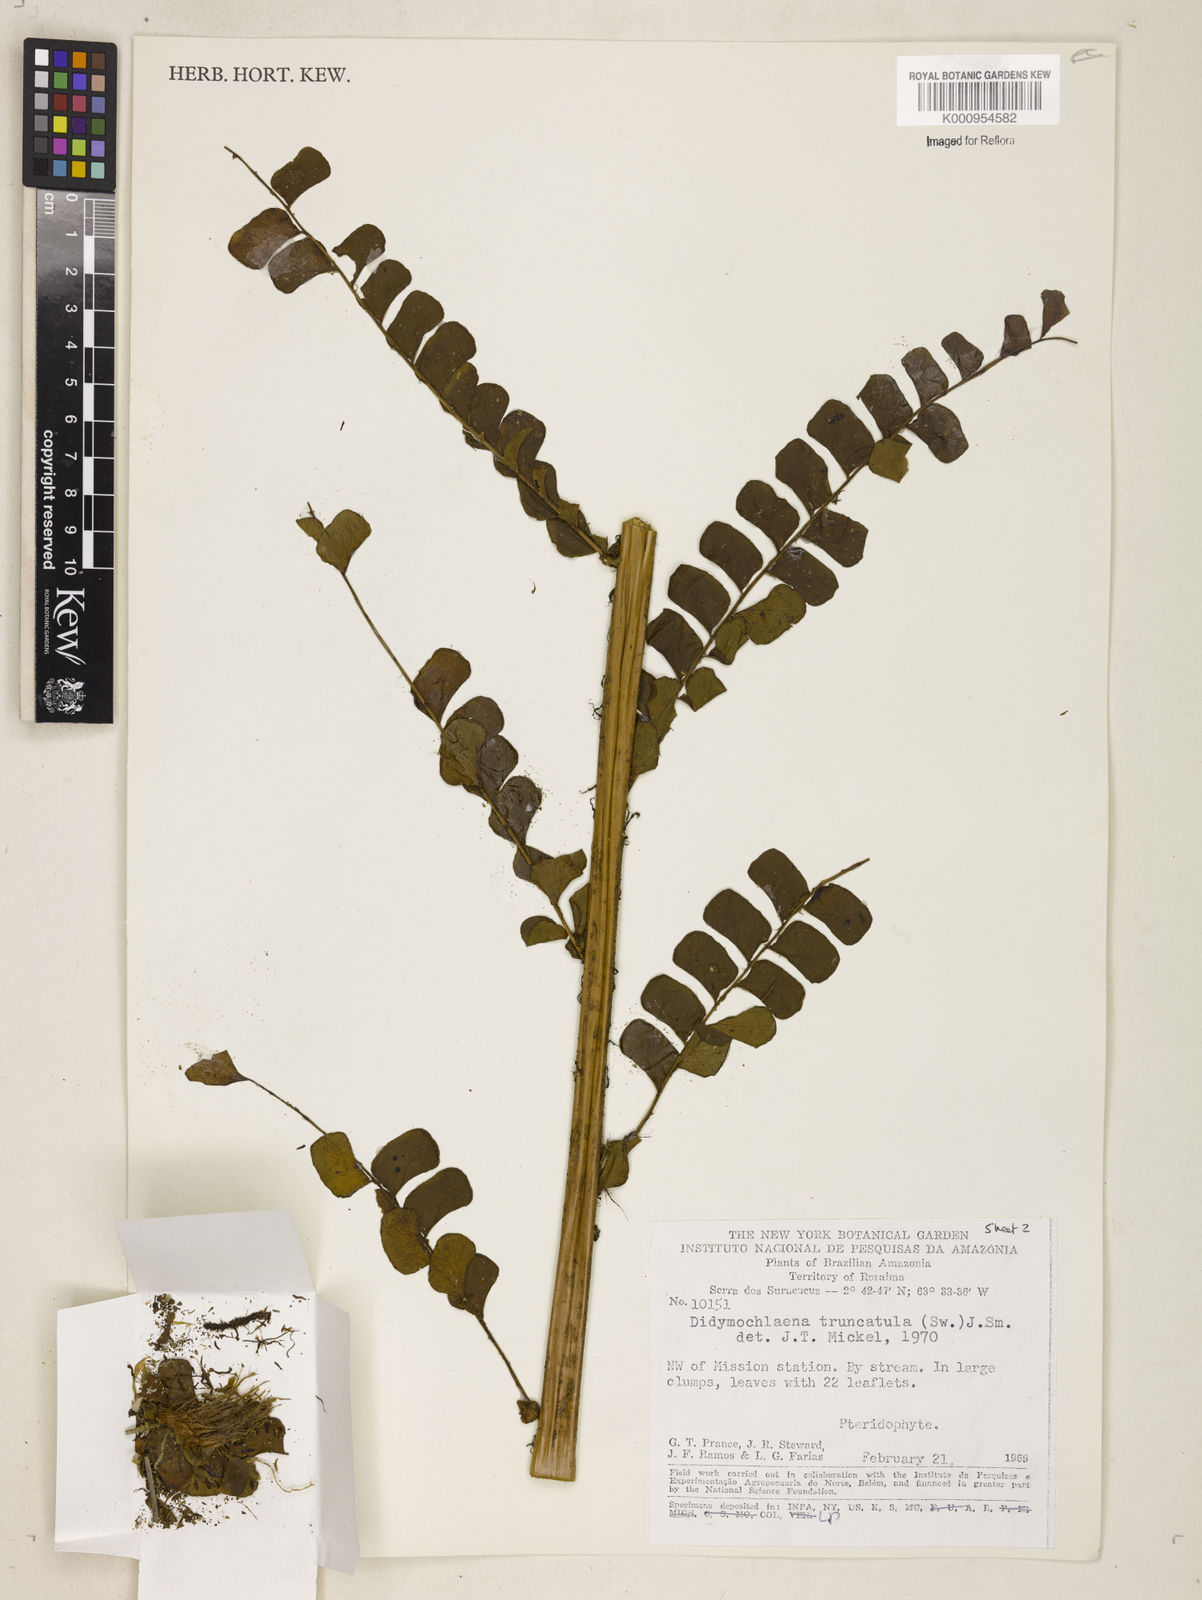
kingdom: Plantae
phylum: Tracheophyta
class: Polypodiopsida
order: Polypodiales
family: Didymochlaenaceae
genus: Didymochlaena
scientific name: Didymochlaena truncatula
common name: Mahogany fern
